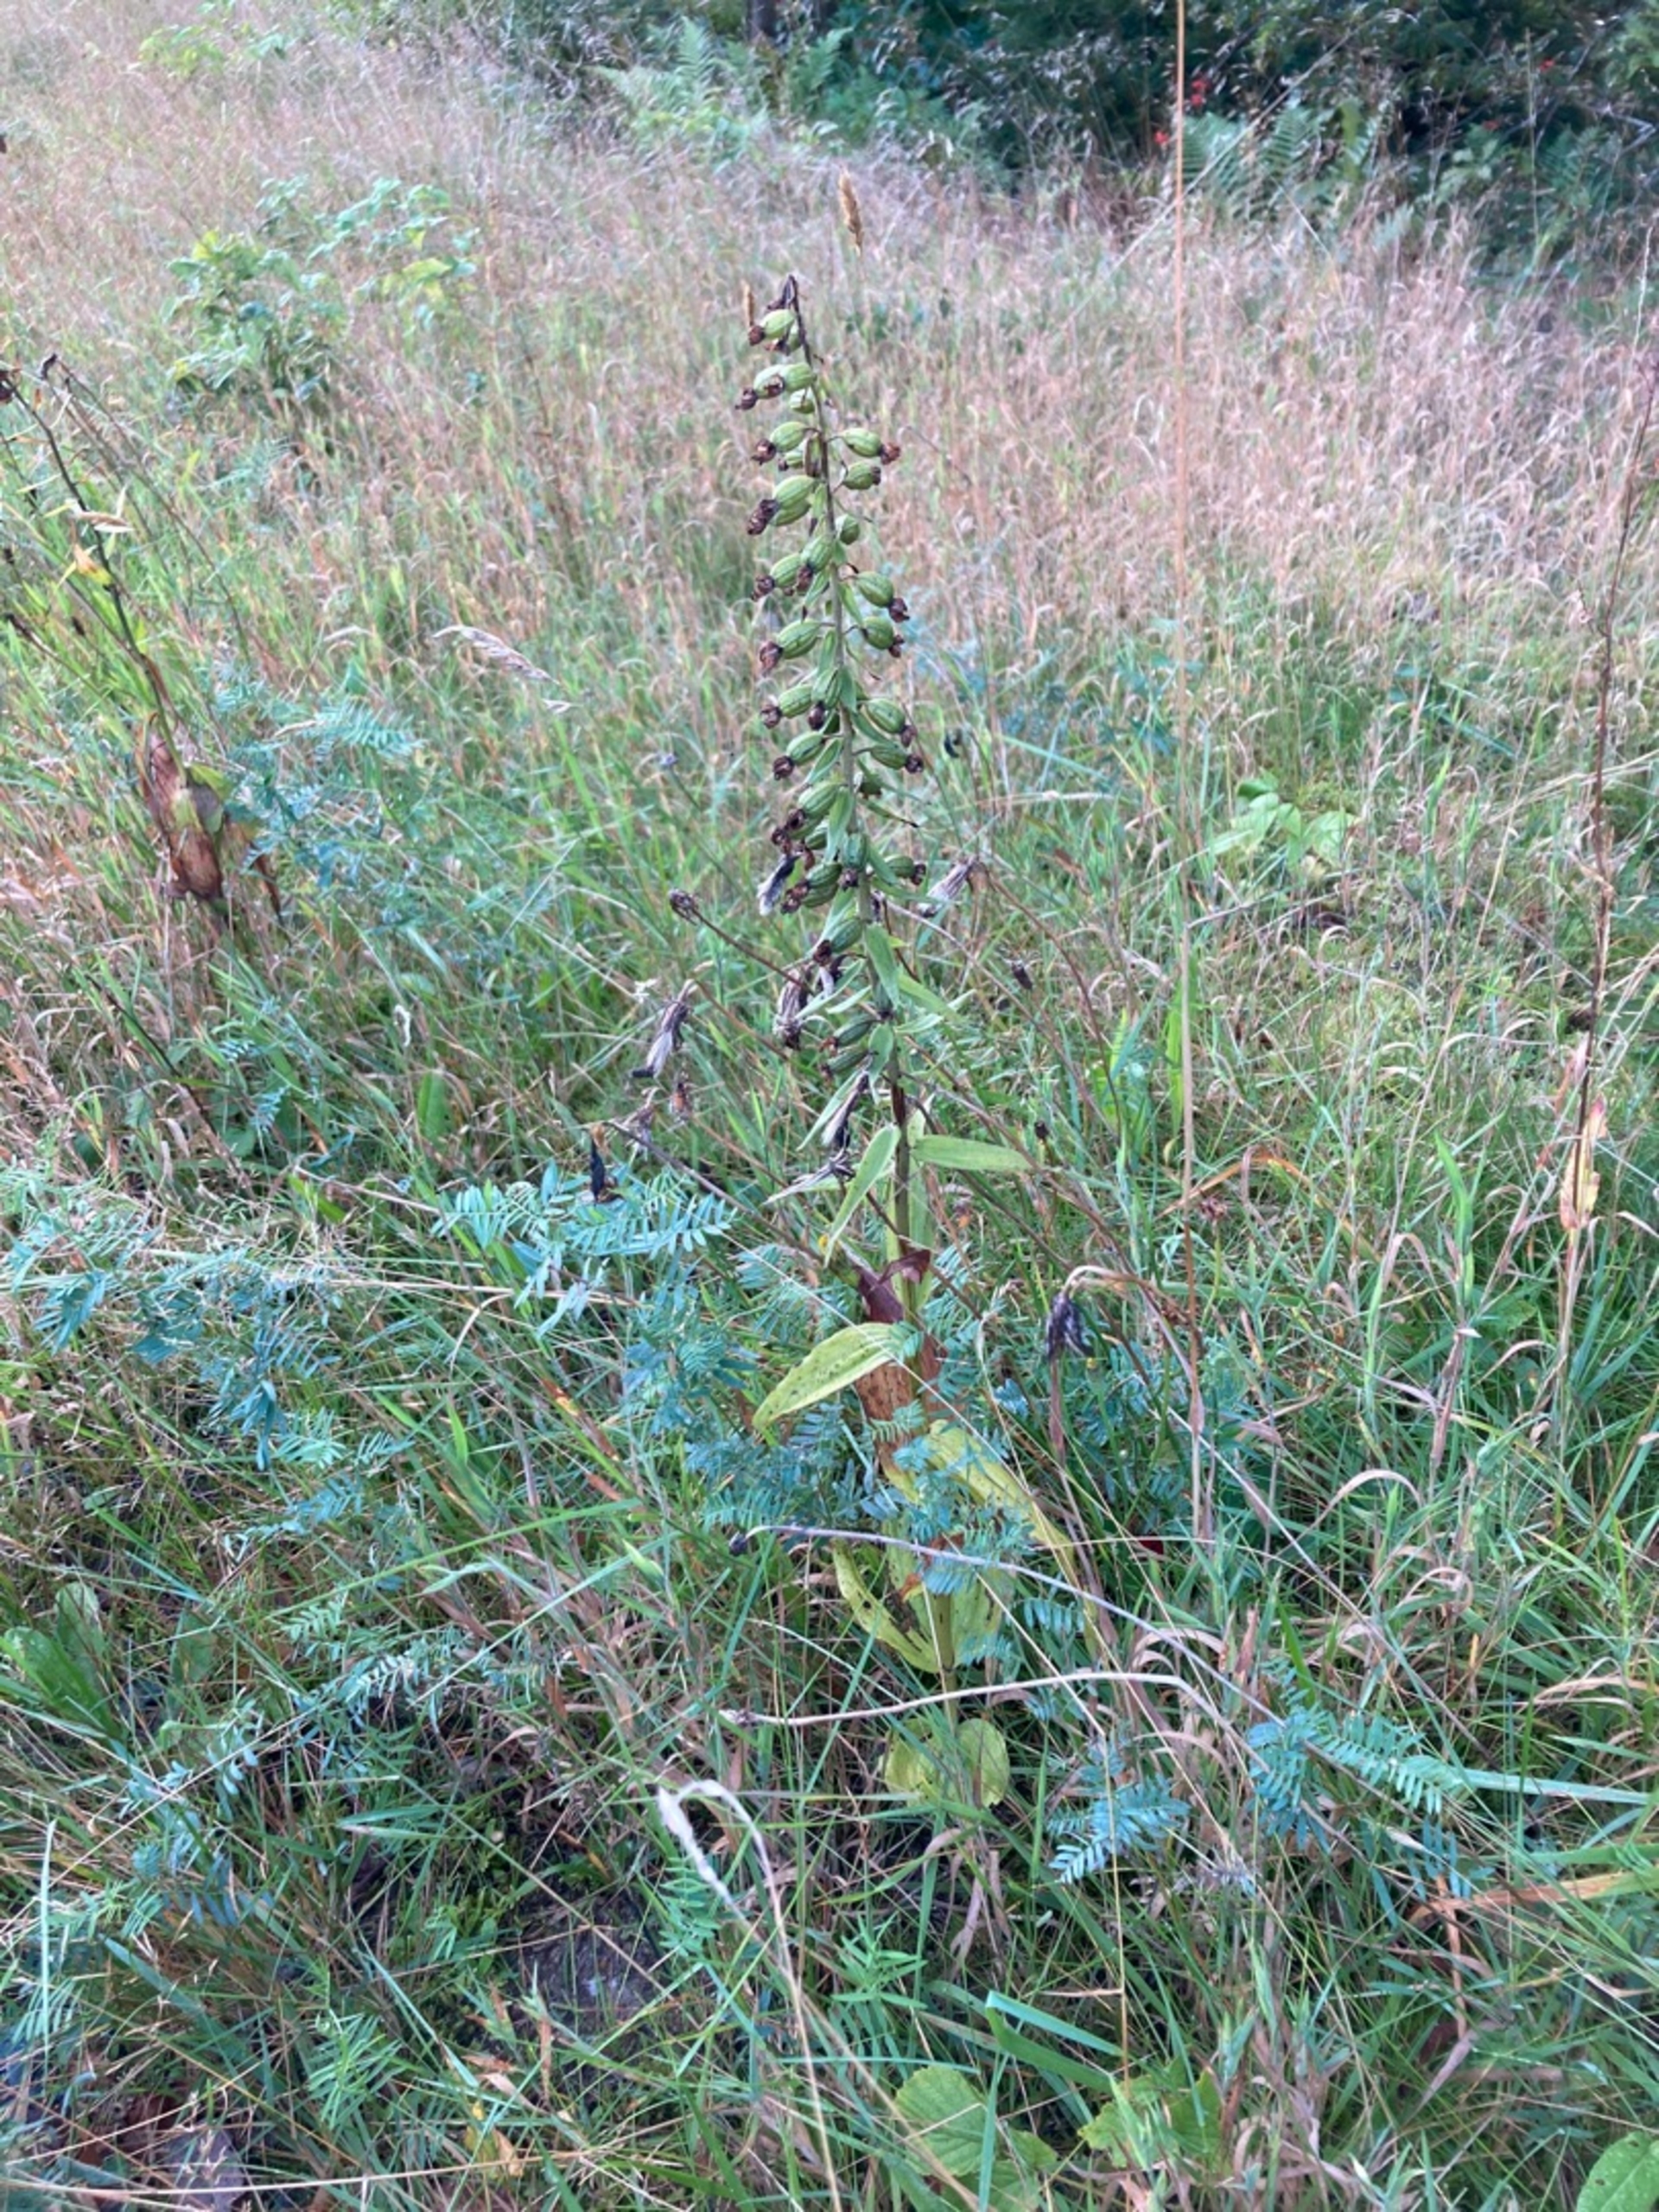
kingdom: Plantae
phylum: Tracheophyta
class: Liliopsida
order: Asparagales
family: Orchidaceae
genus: Epipactis
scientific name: Epipactis helleborine
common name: Skov-hullæbe
